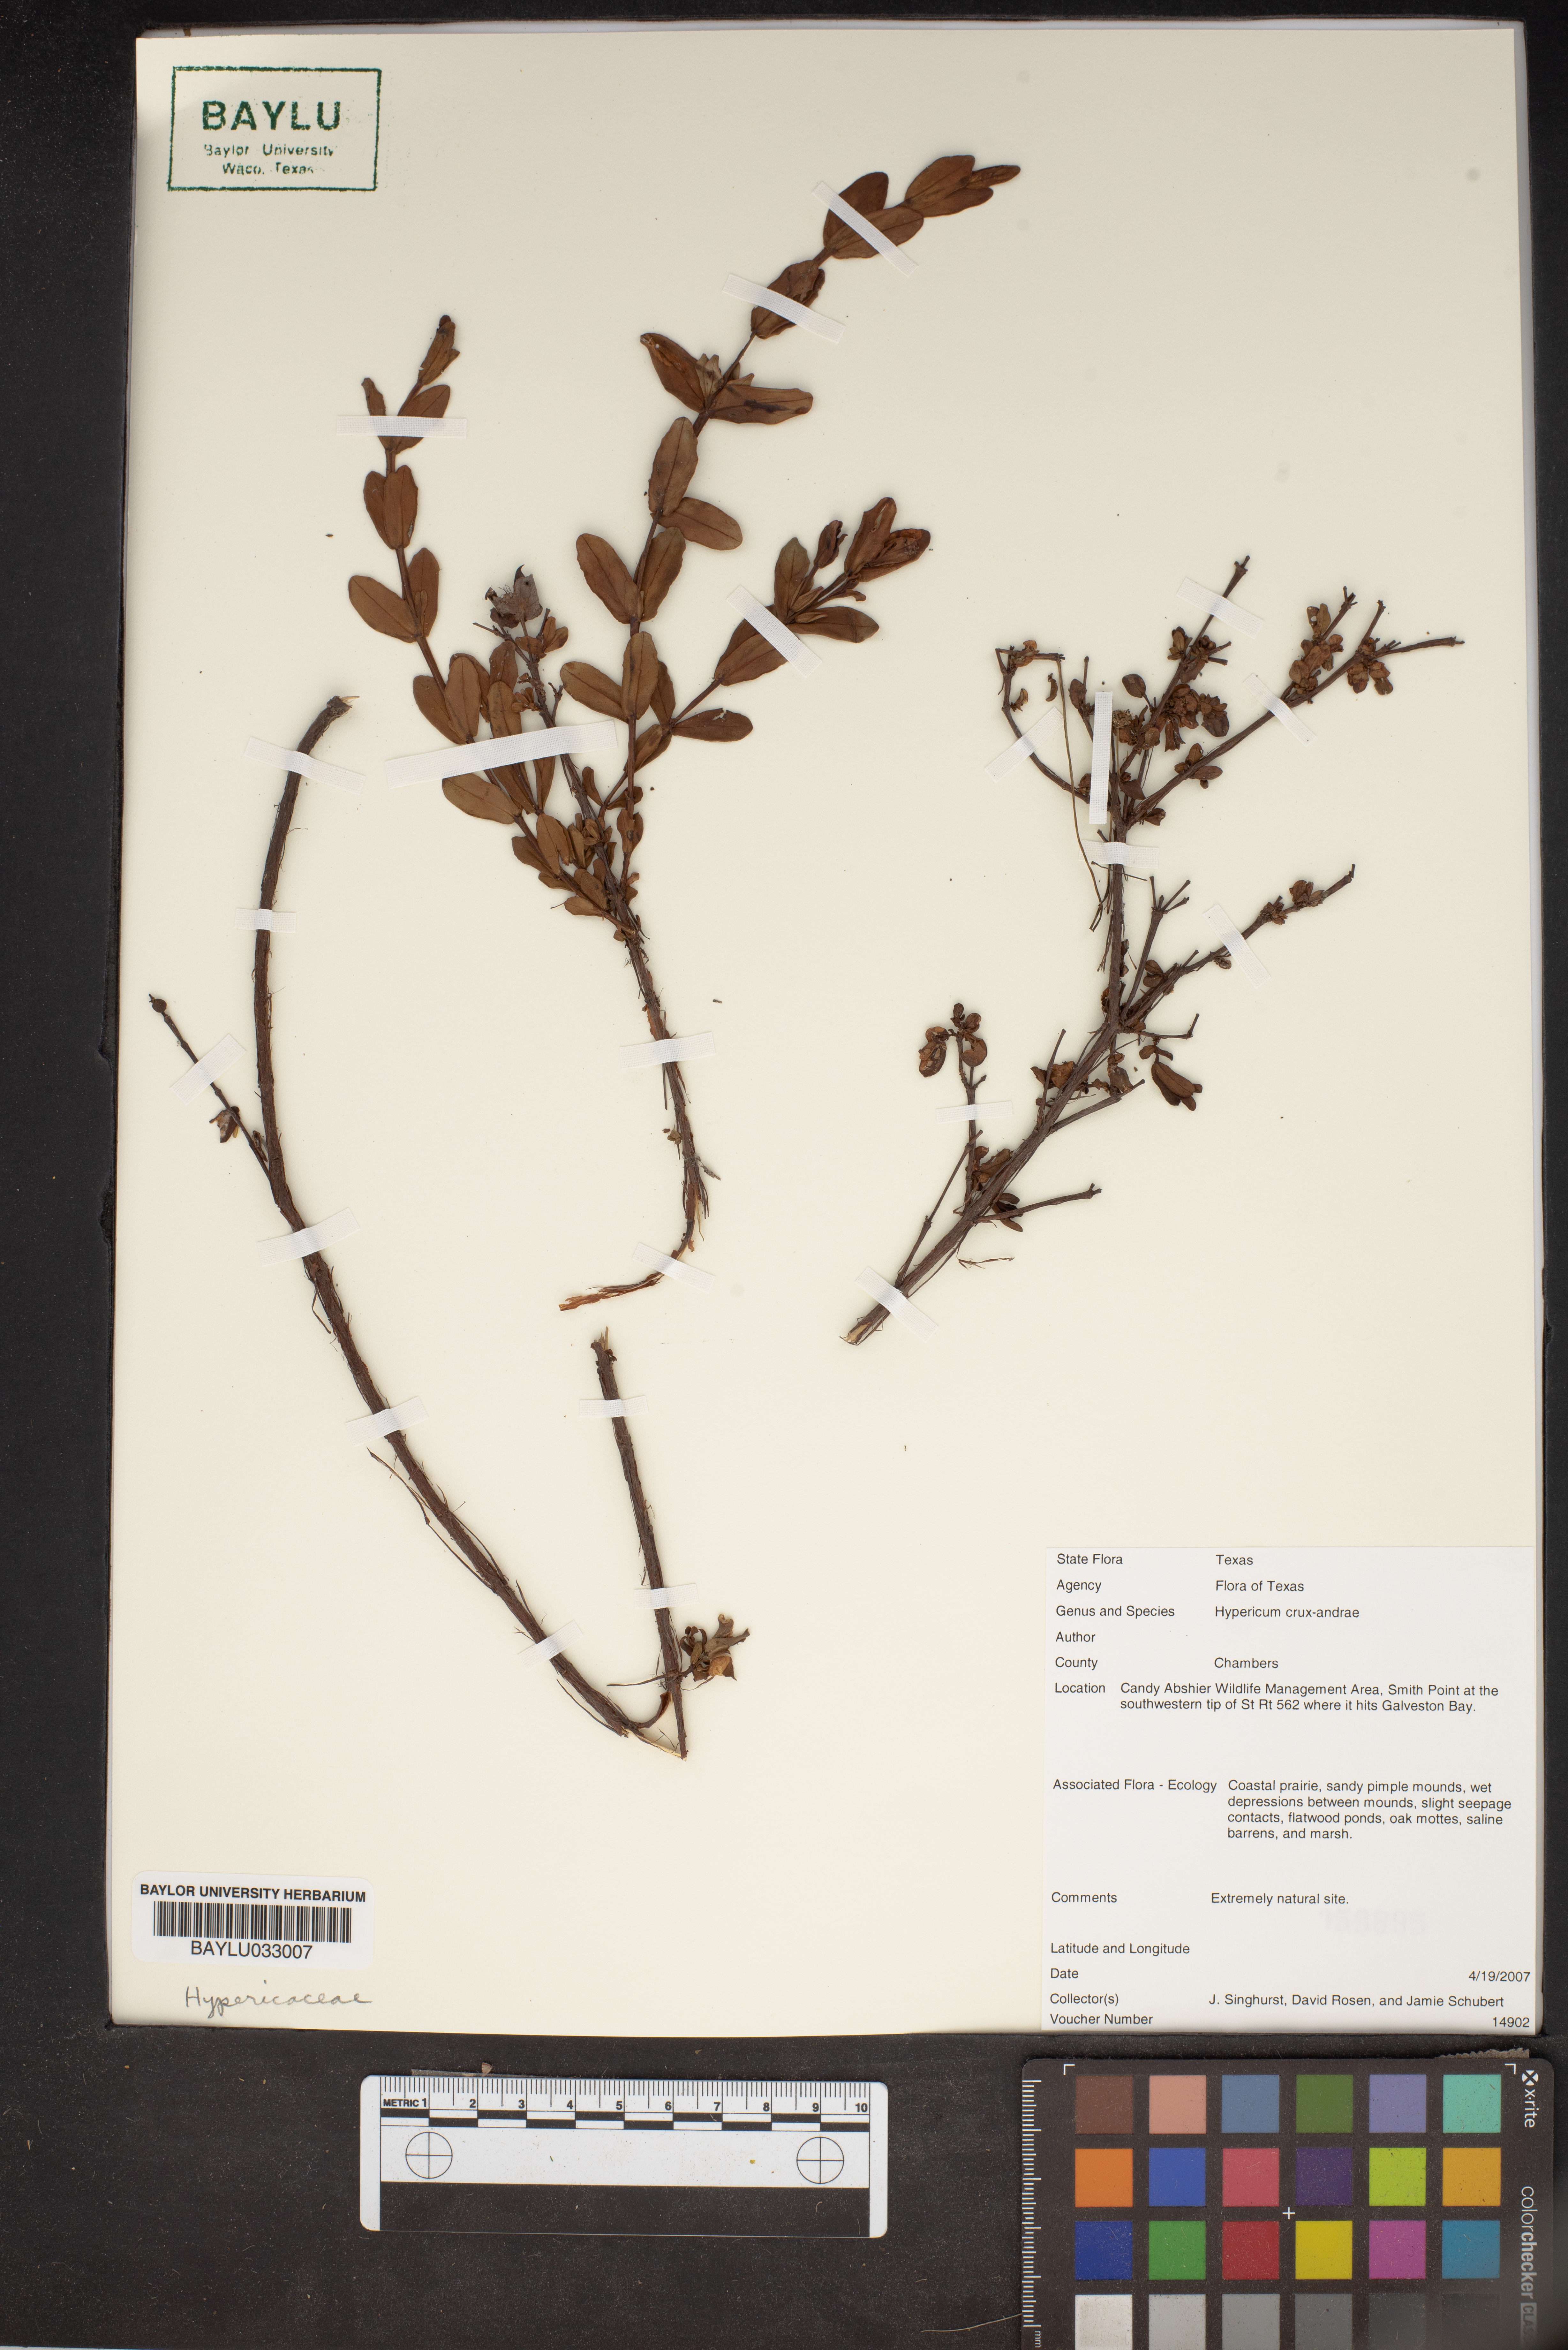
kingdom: Plantae
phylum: Tracheophyta
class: Magnoliopsida
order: Malpighiales
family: Hypericaceae
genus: Hypericum
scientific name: Hypericum crux-andreae
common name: St.-peter's-wort
